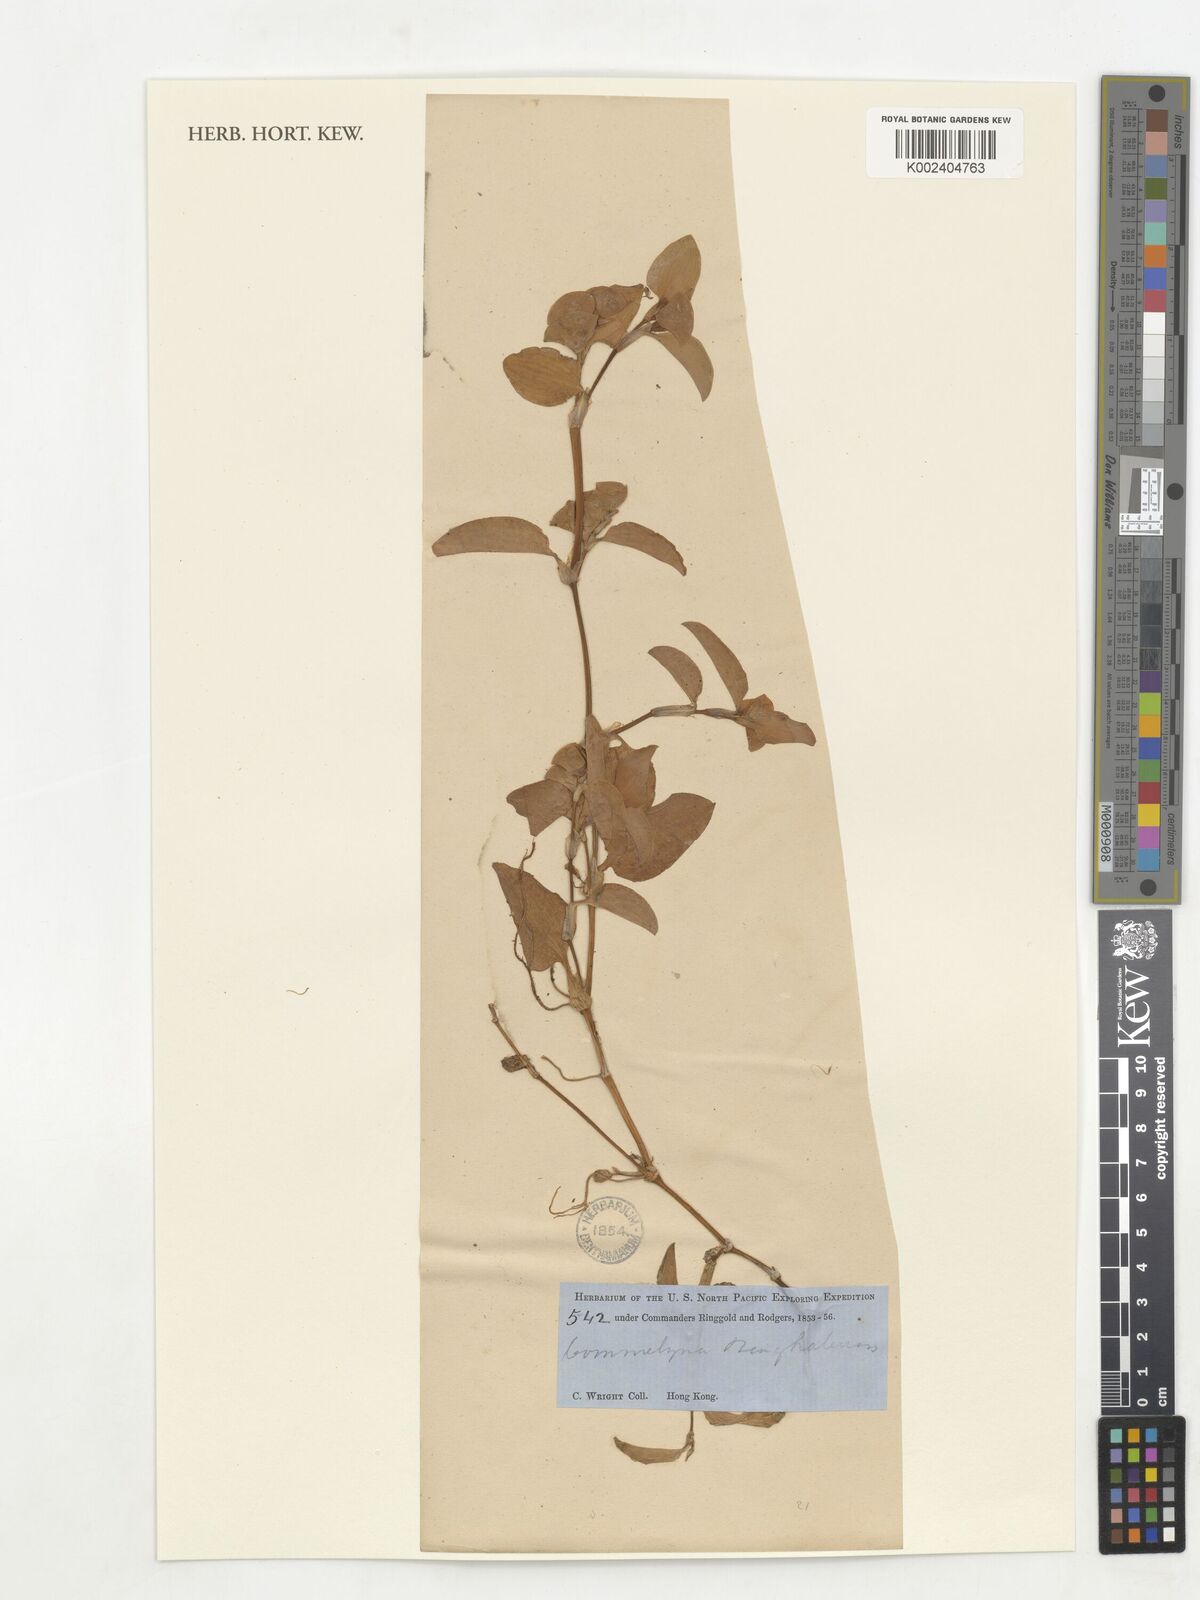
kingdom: Plantae
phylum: Tracheophyta
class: Liliopsida
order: Commelinales
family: Commelinaceae
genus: Commelina
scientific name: Commelina africana
